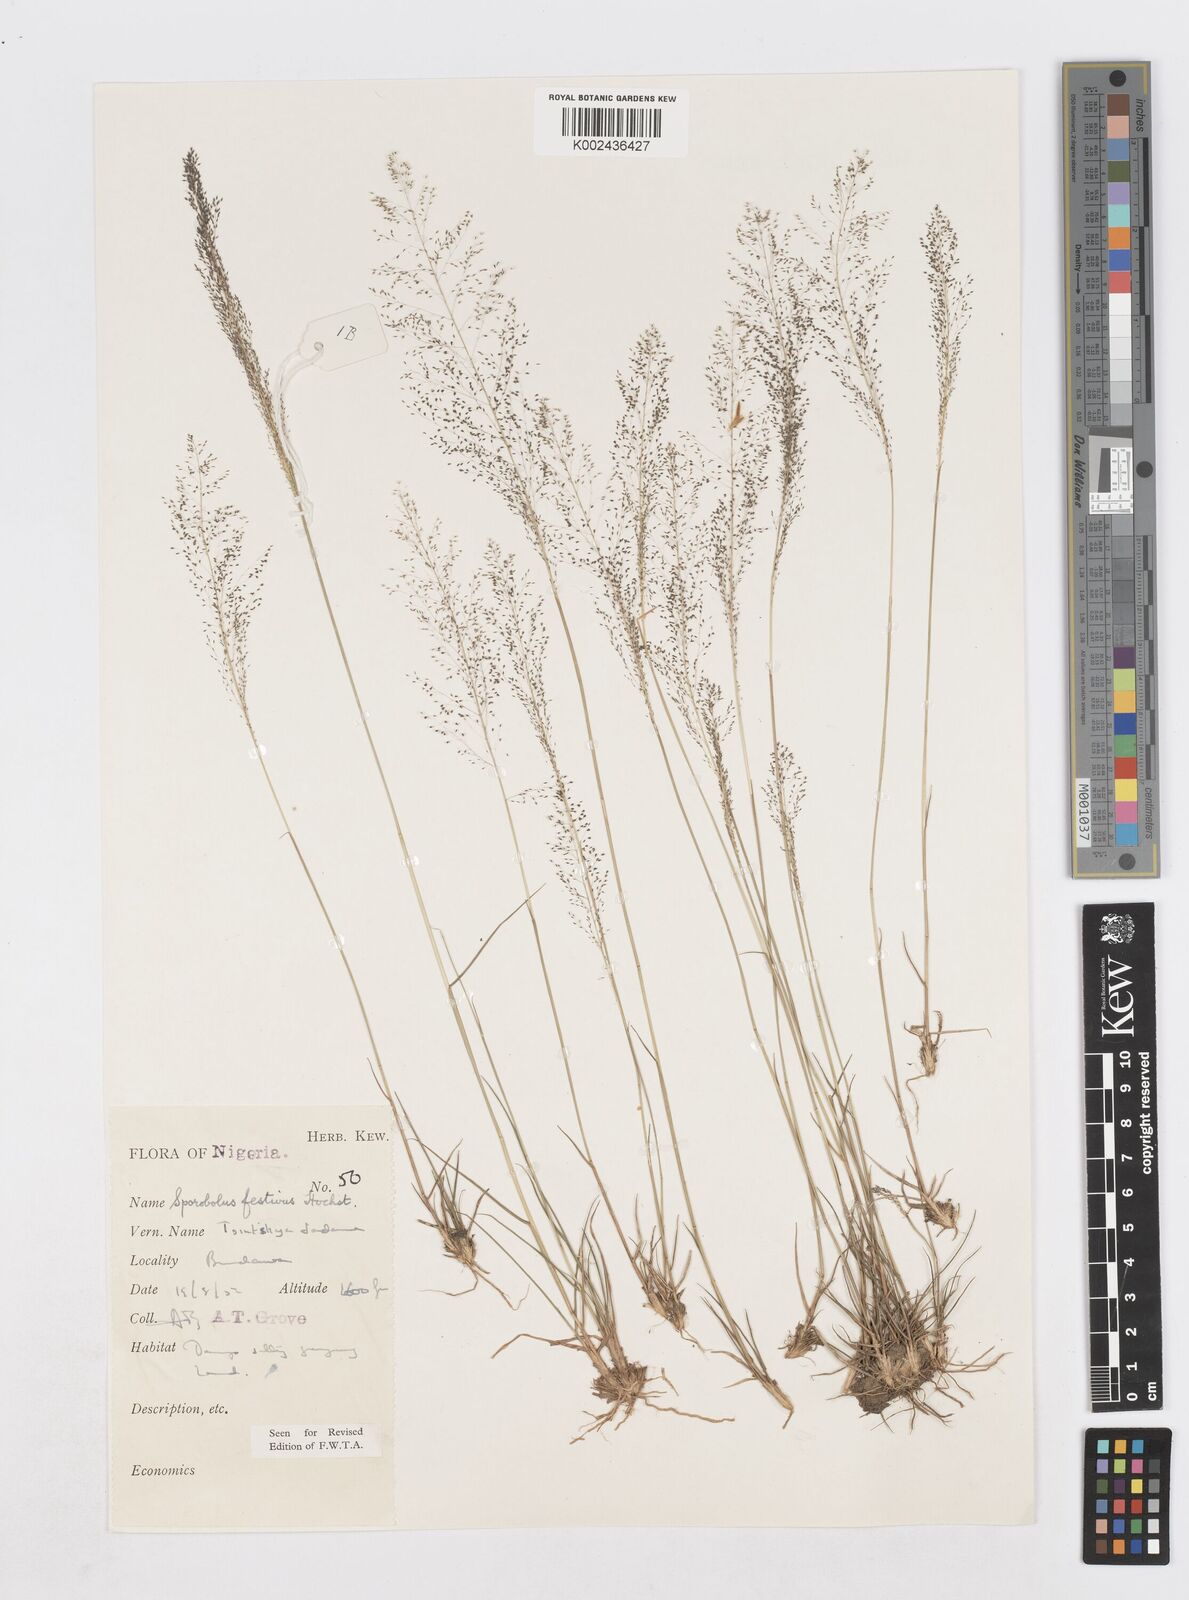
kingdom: Plantae
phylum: Tracheophyta
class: Liliopsida
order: Poales
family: Poaceae
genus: Sporobolus
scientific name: Sporobolus festivus
